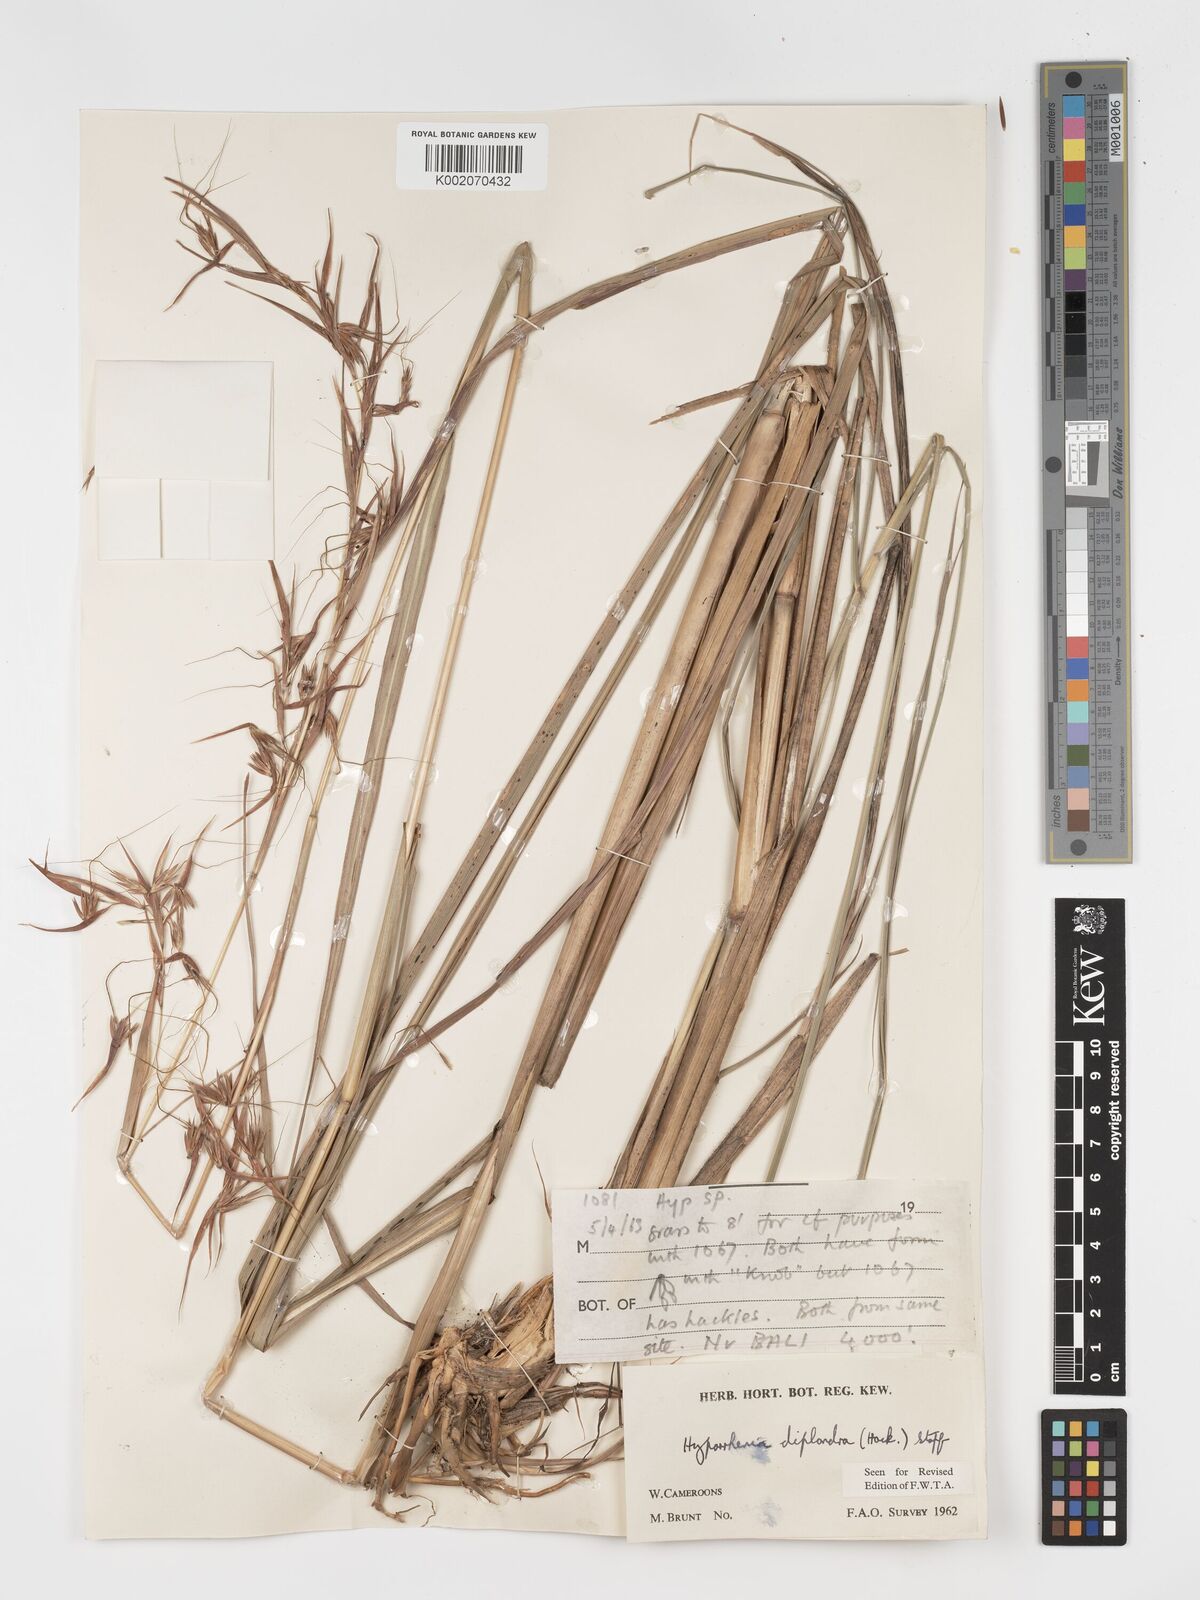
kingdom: Plantae
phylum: Tracheophyta
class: Liliopsida
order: Poales
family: Poaceae
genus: Hyparrhenia
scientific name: Hyparrhenia diplandra
